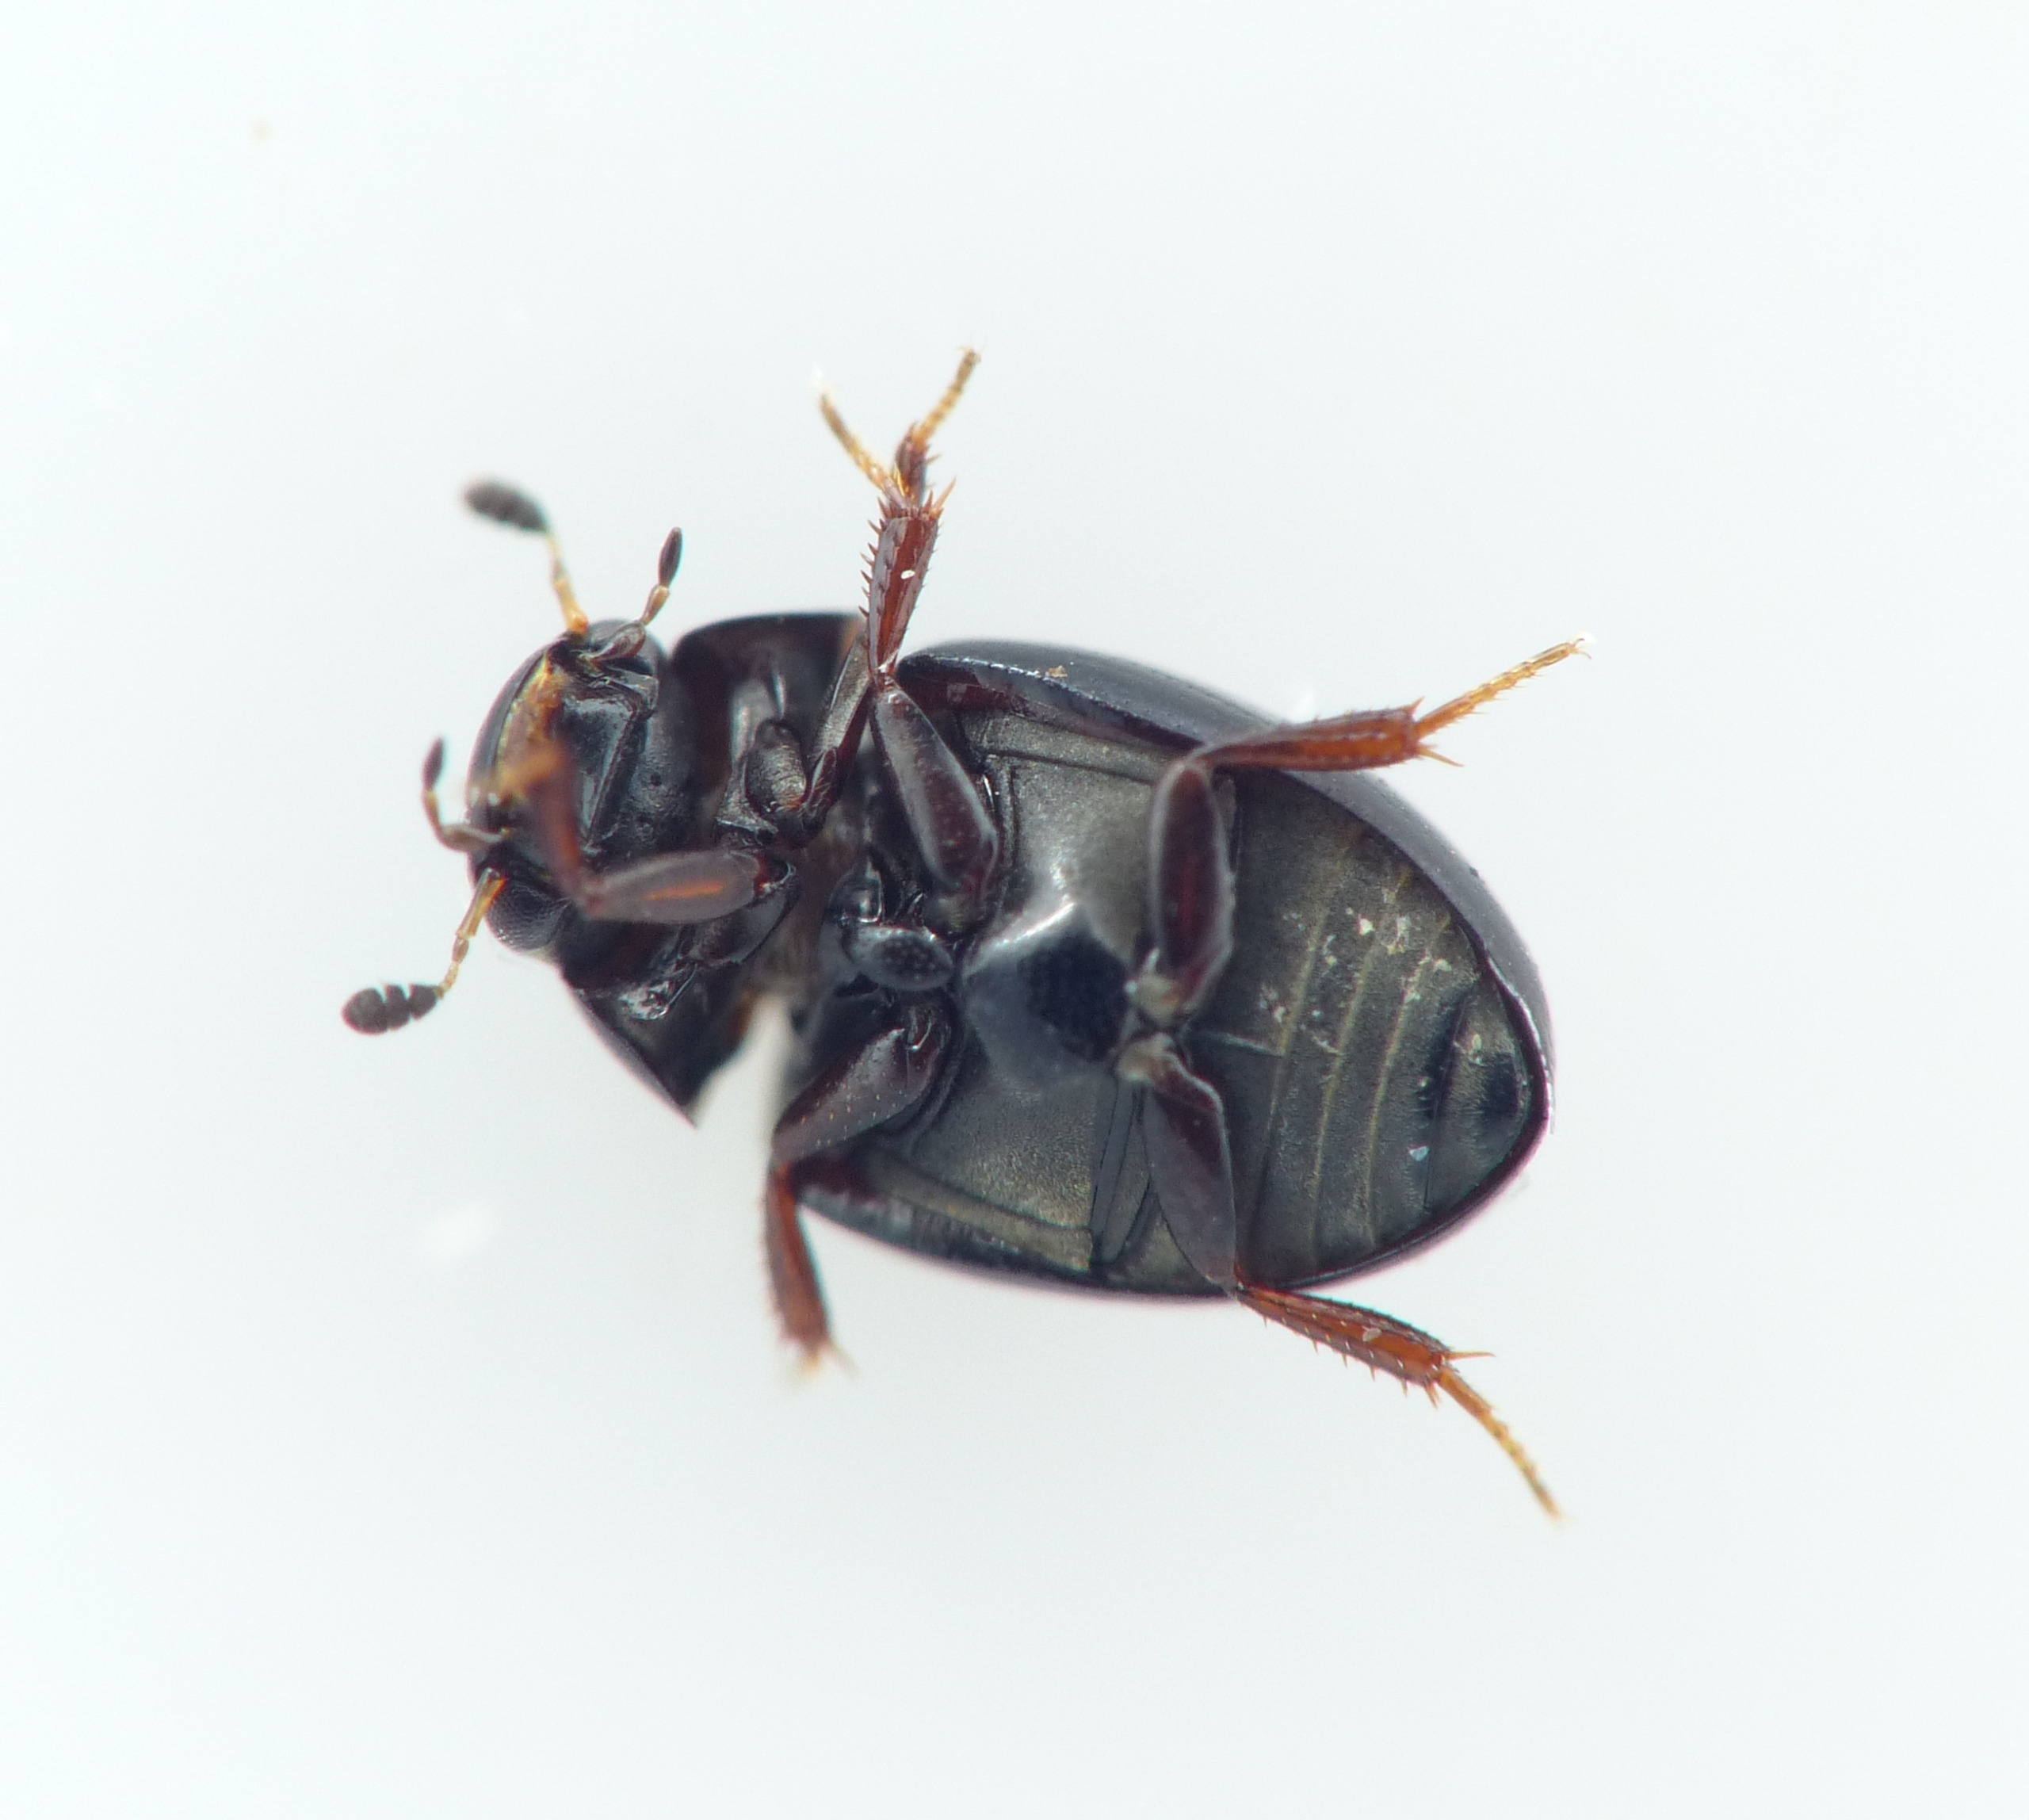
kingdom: Animalia
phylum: Arthropoda
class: Insecta
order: Coleoptera
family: Hydrophilidae
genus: Cercyon
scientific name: Cercyon tristis
